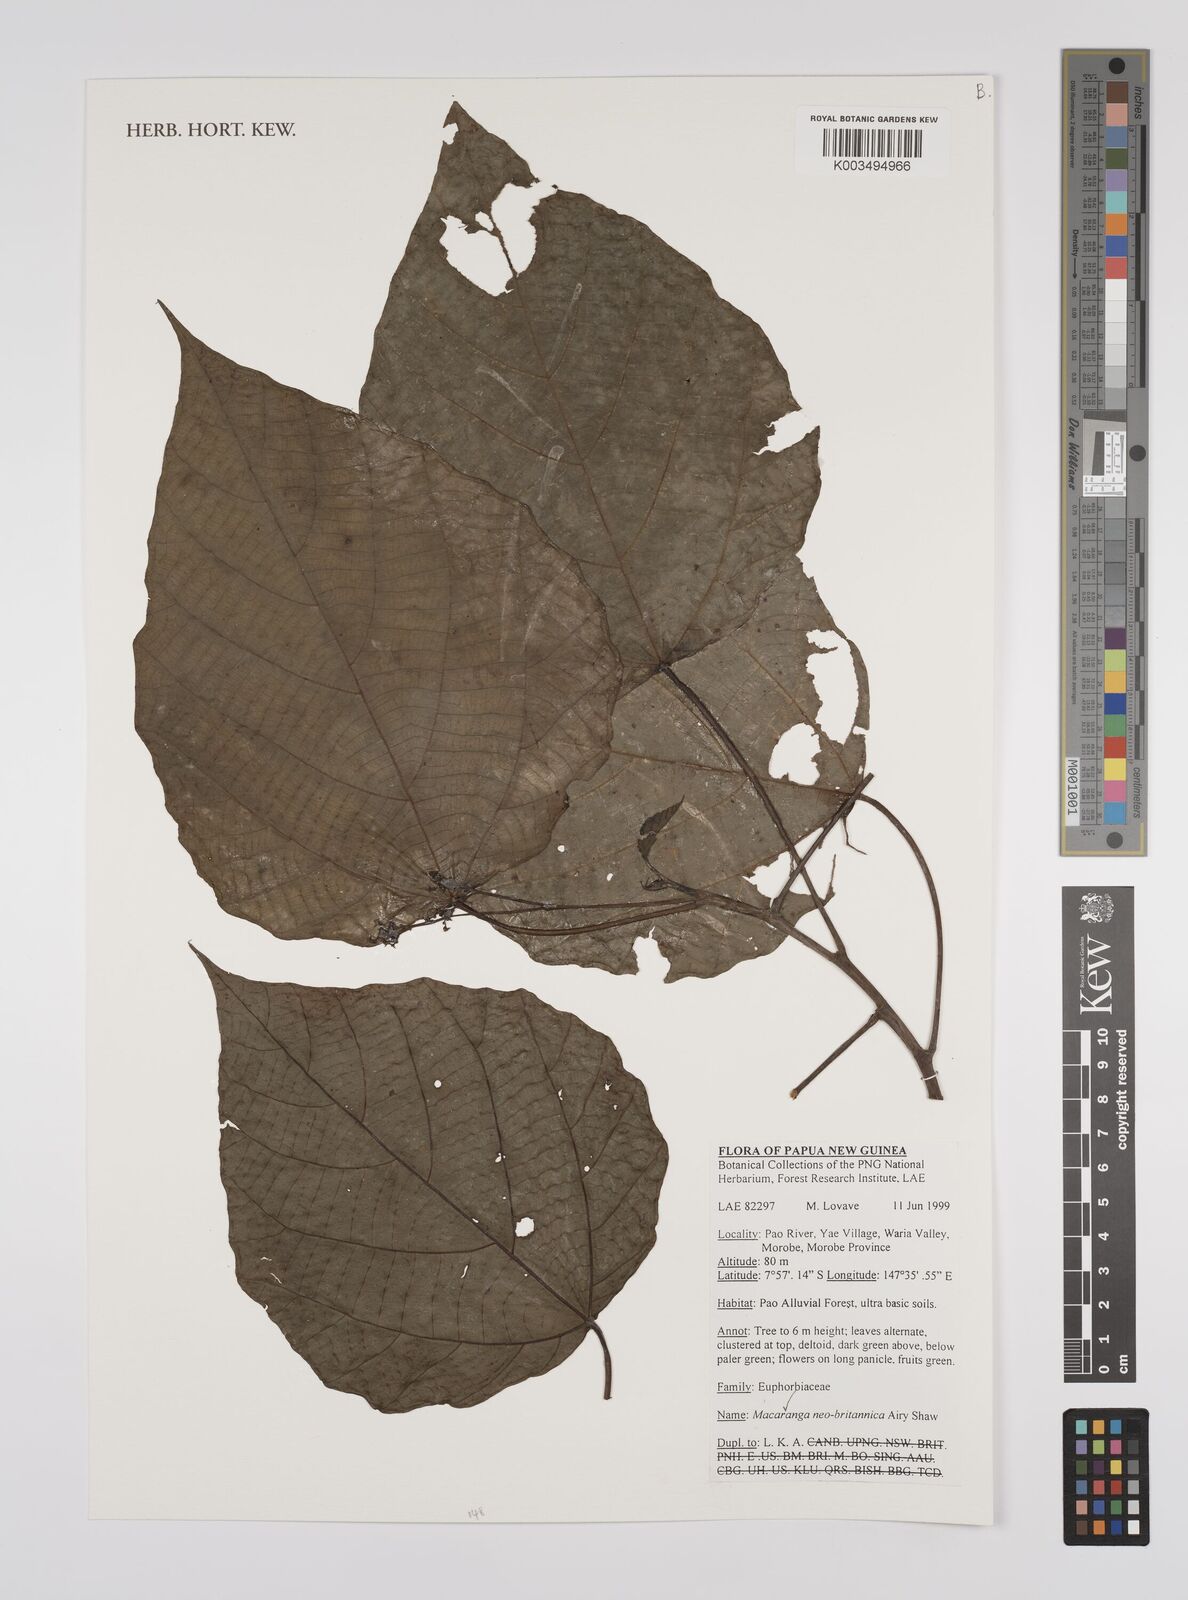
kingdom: Plantae
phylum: Tracheophyta
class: Magnoliopsida
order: Malpighiales
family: Euphorbiaceae
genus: Macaranga
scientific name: Macaranga neobritannica
